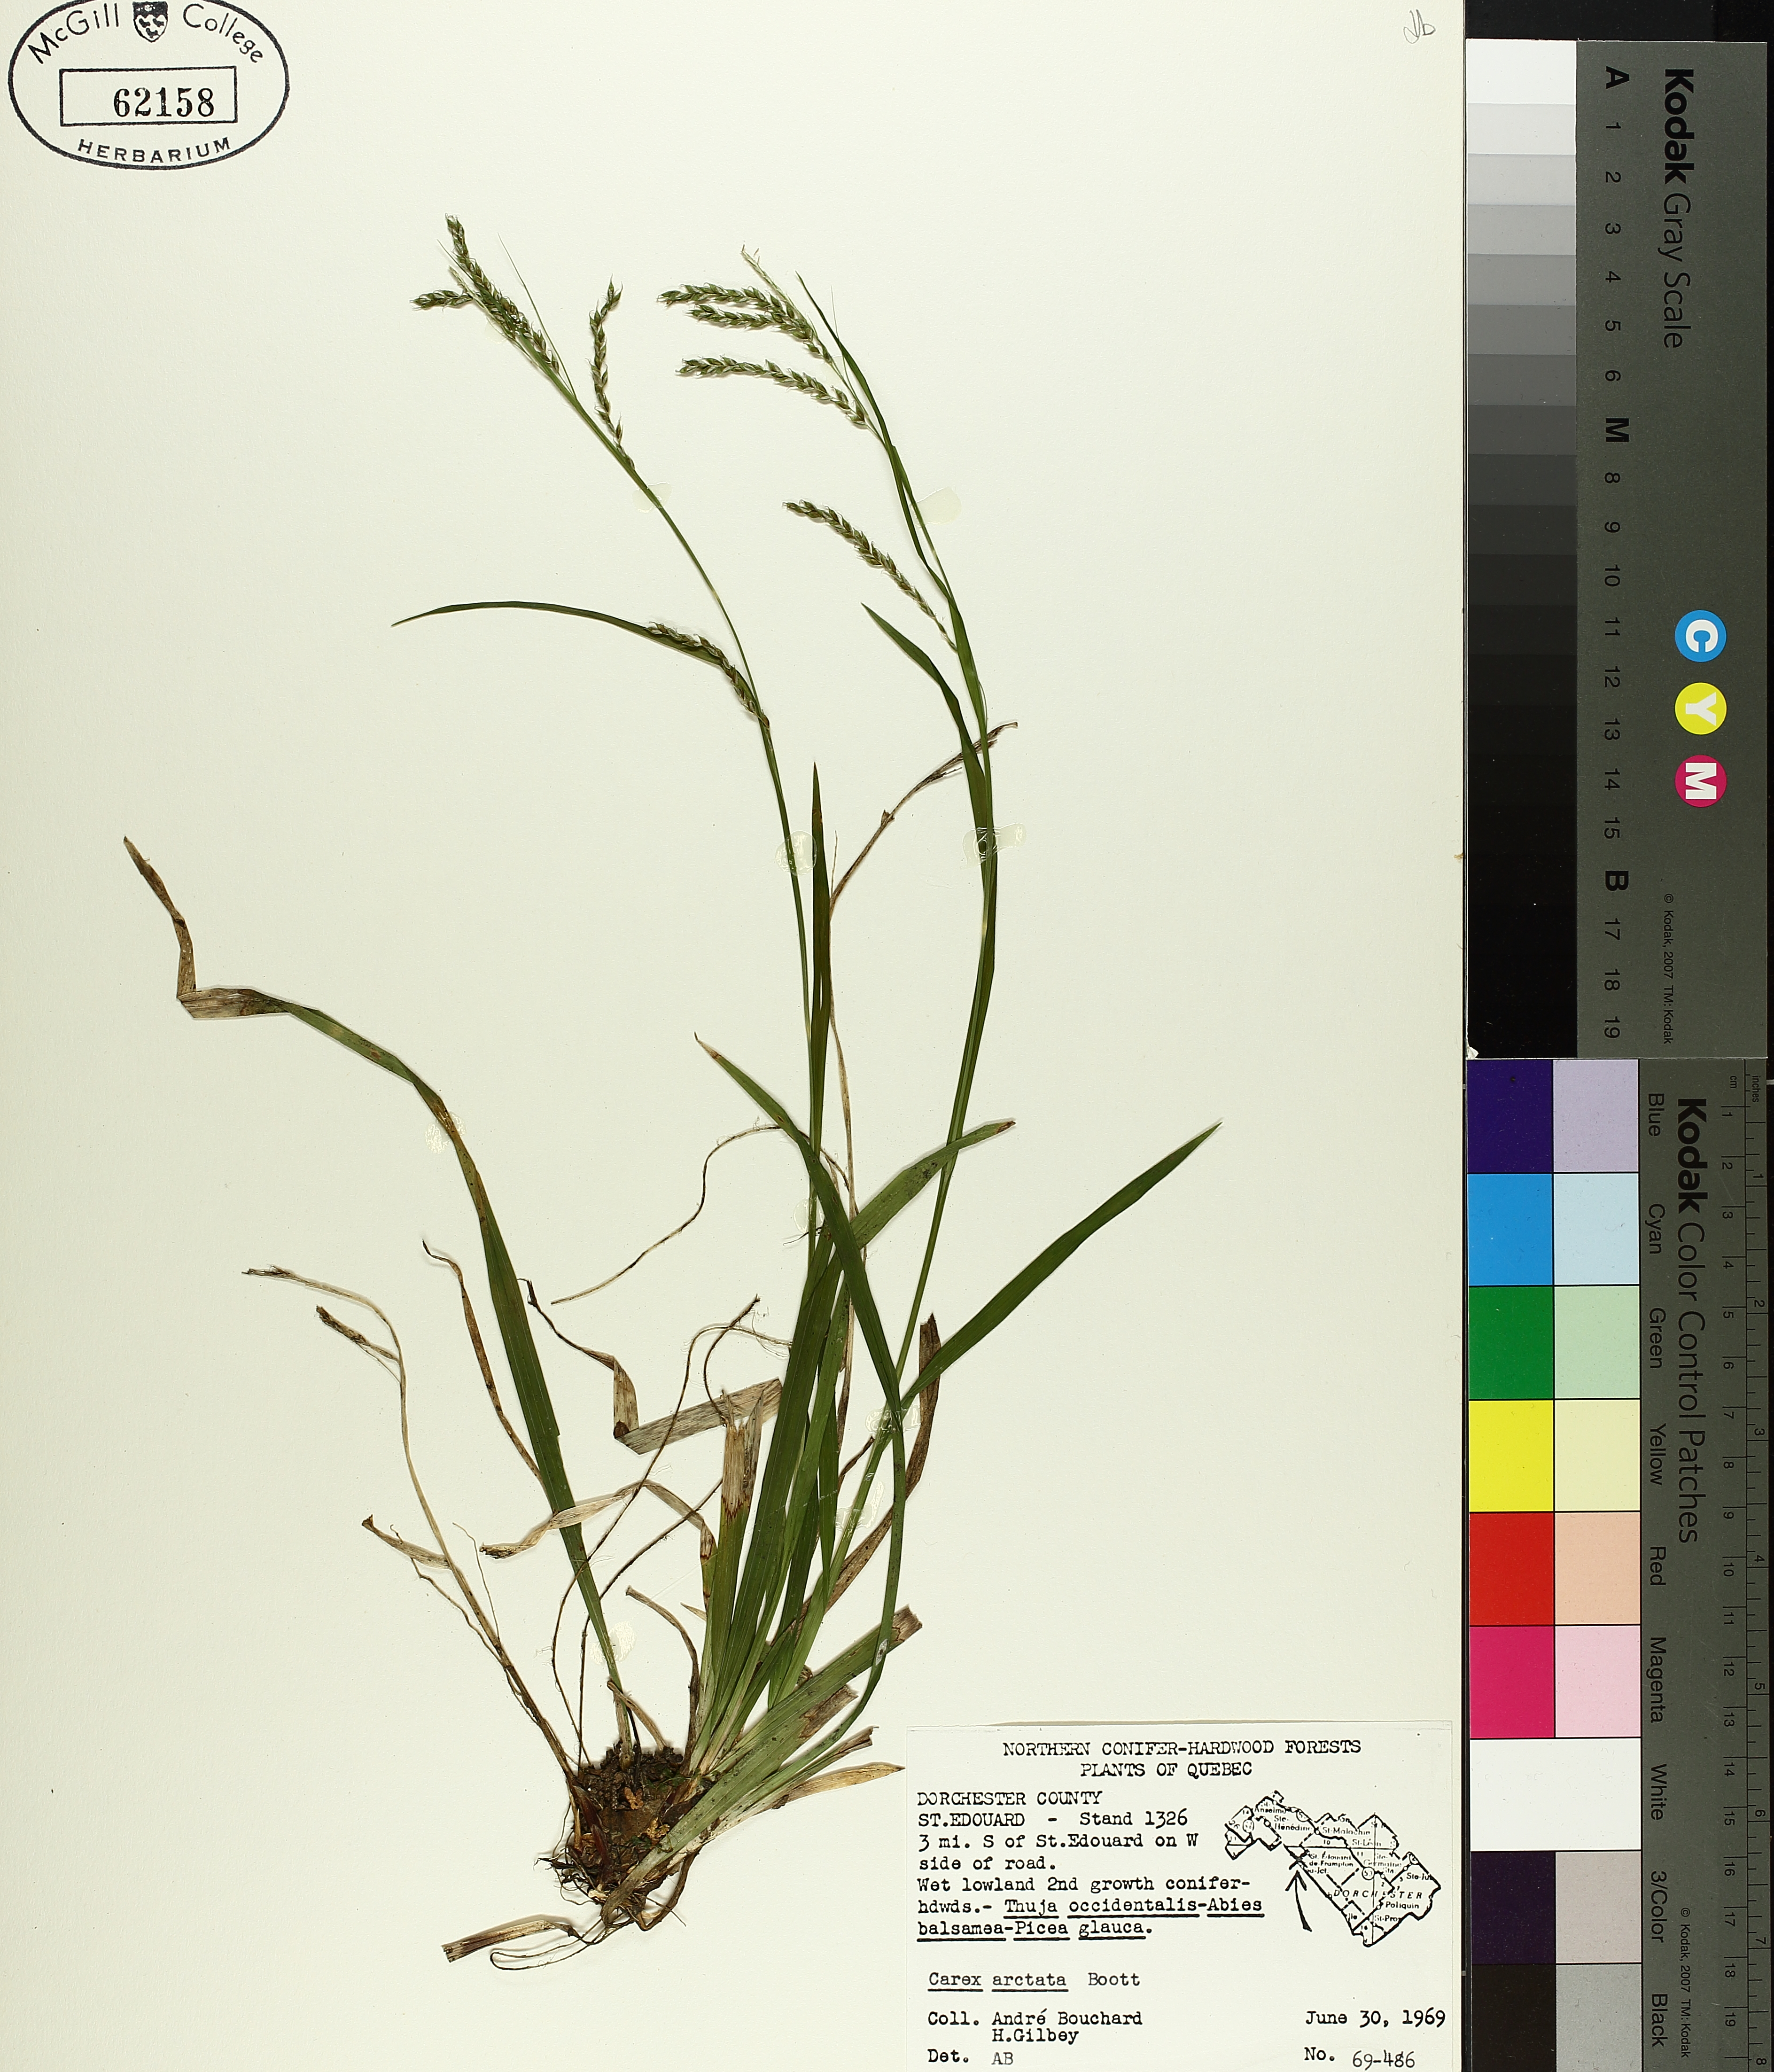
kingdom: Plantae
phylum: Tracheophyta
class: Liliopsida
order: Poales
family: Cyperaceae
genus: Carex
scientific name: Carex arctata
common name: Black sedge
